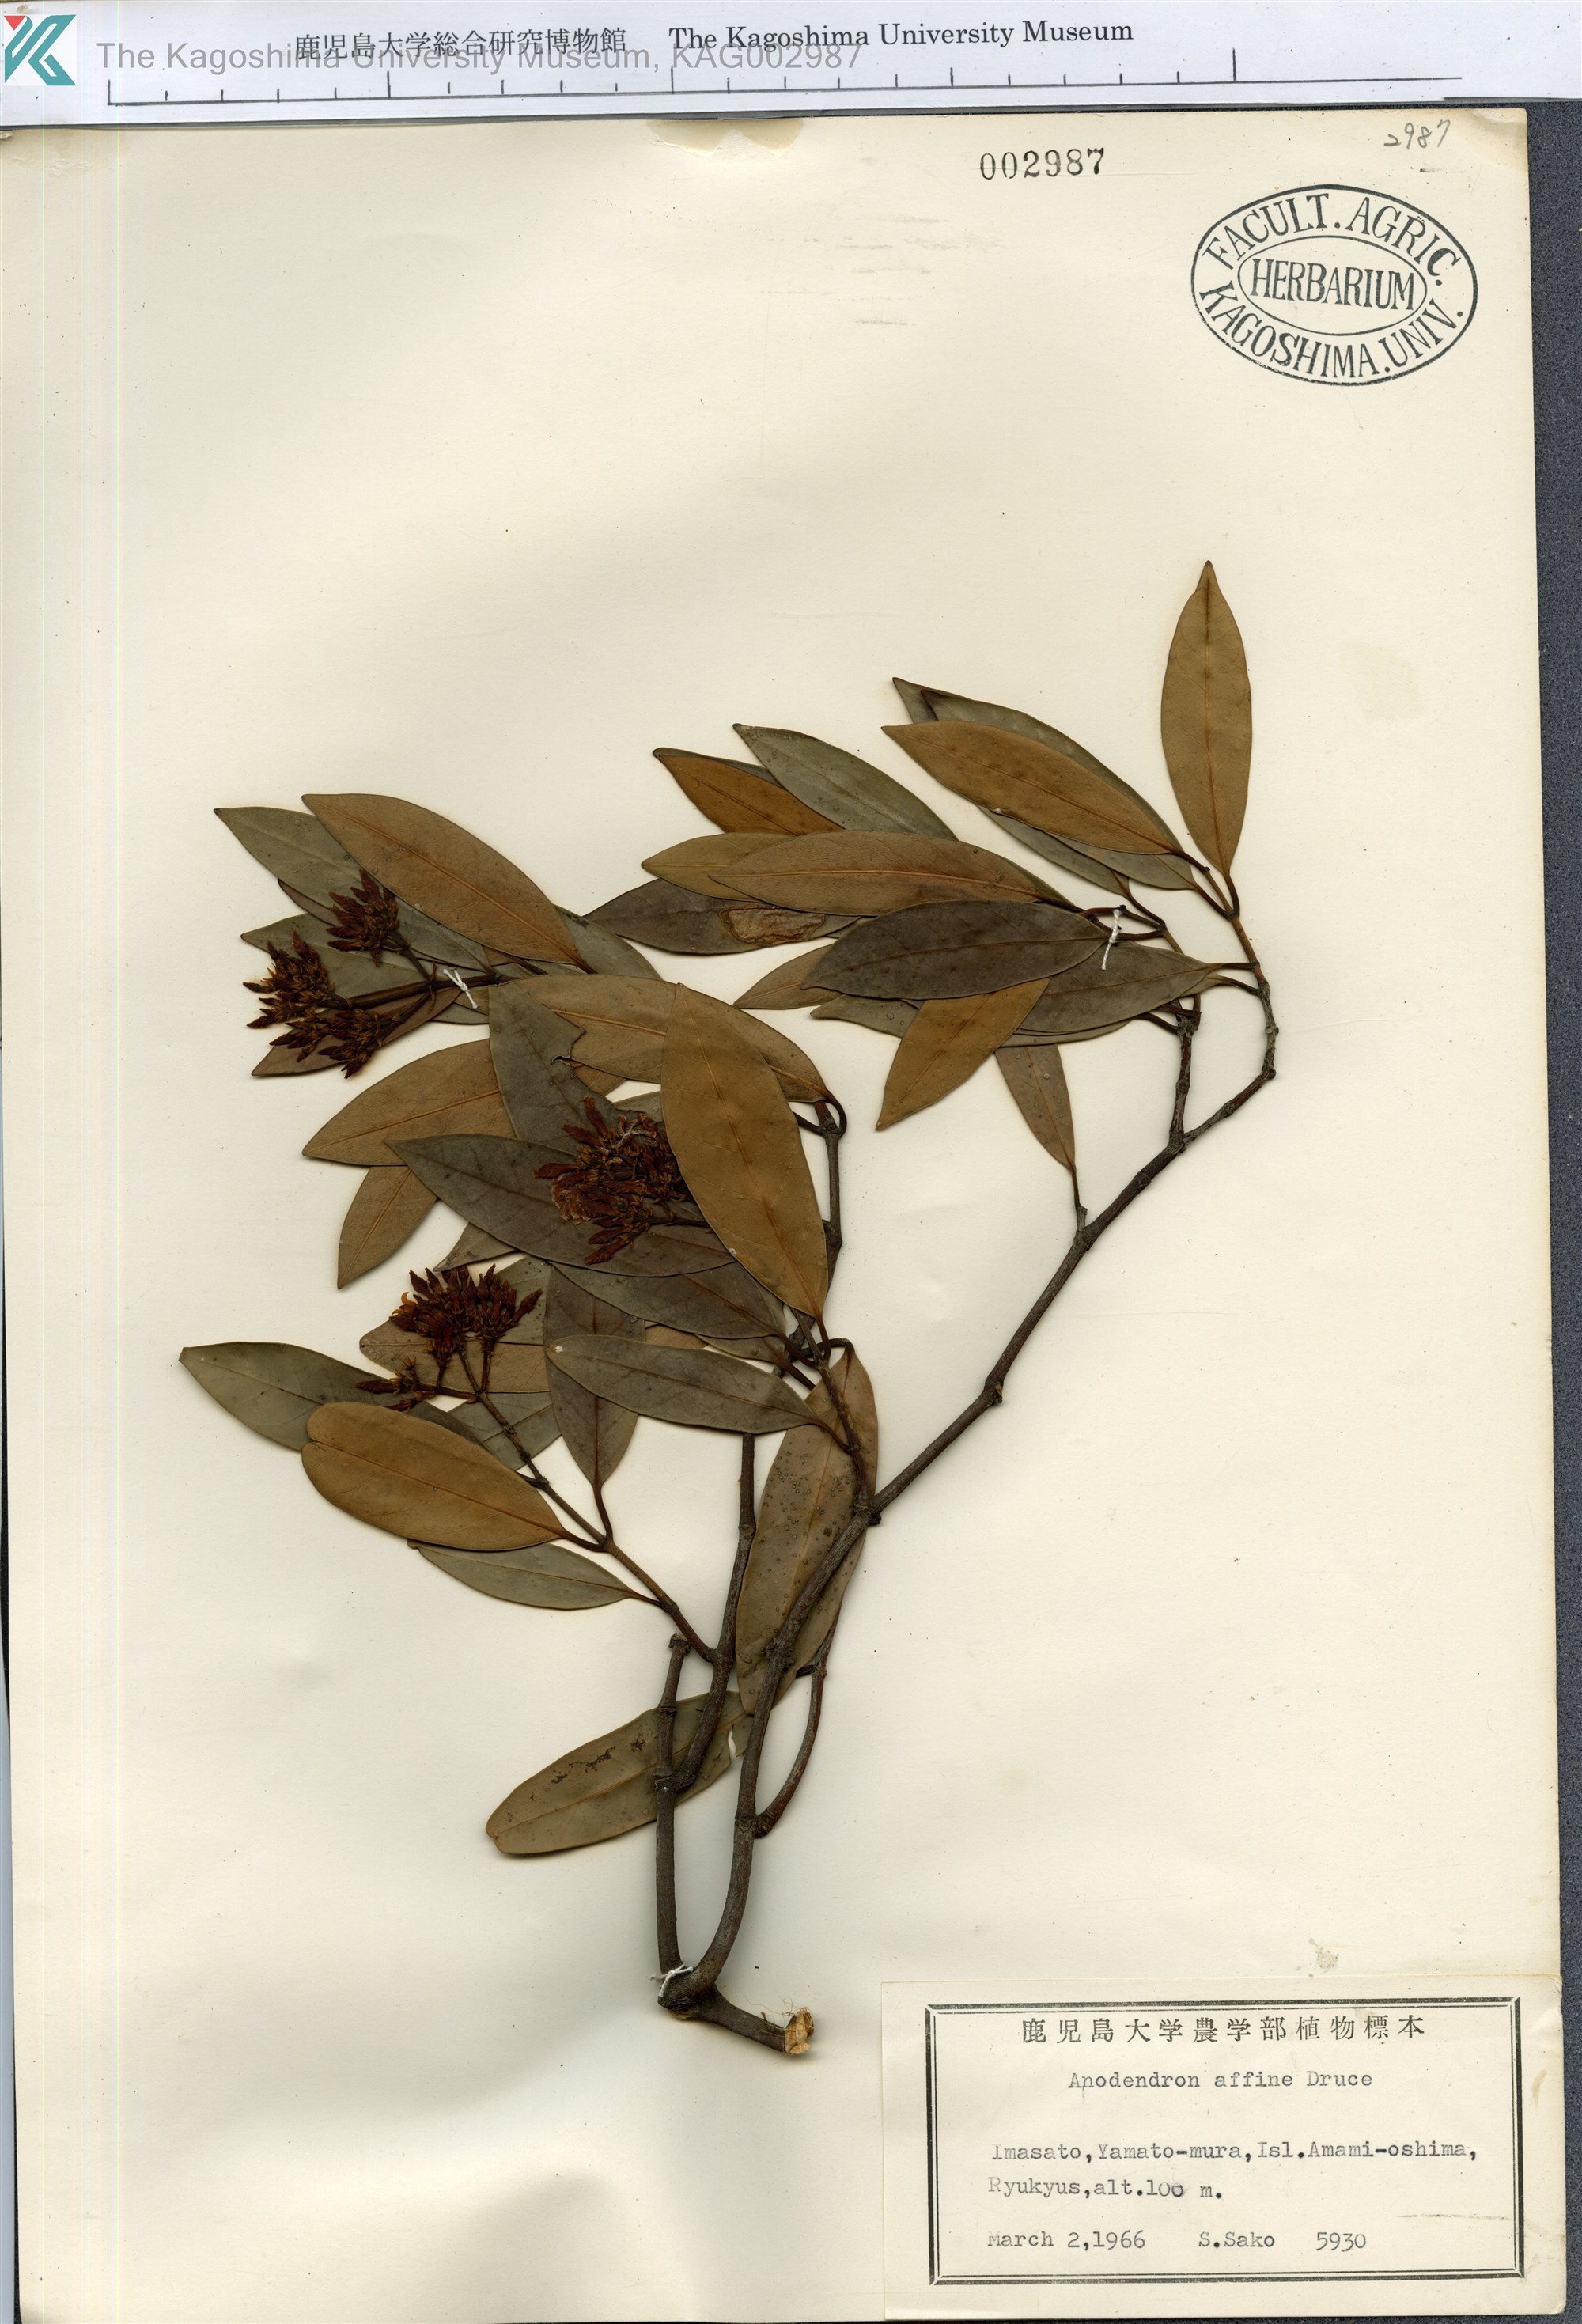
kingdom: Plantae
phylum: Tracheophyta
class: Magnoliopsida
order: Gentianales
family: Apocynaceae
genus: Anodendron
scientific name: Anodendron affine
